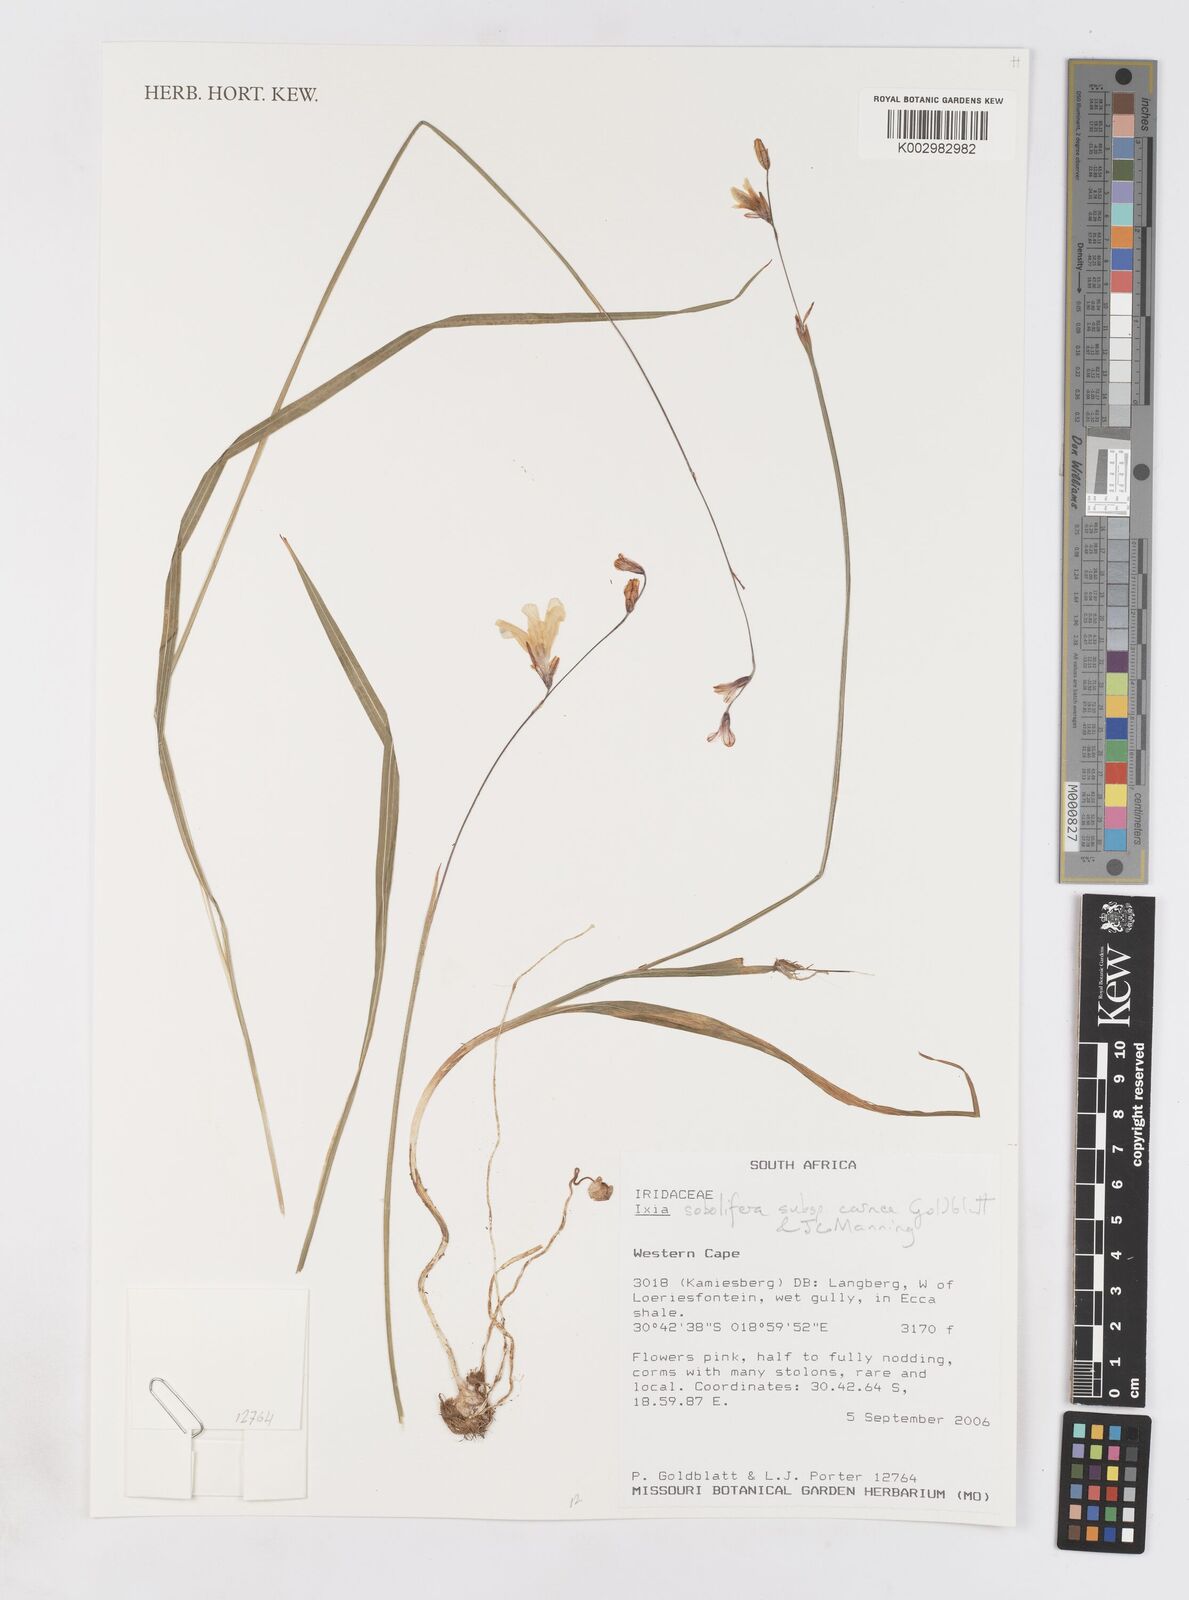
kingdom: Plantae
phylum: Tracheophyta
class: Liliopsida
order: Asparagales
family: Iridaceae
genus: Ixia
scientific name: Ixia sobolifera
